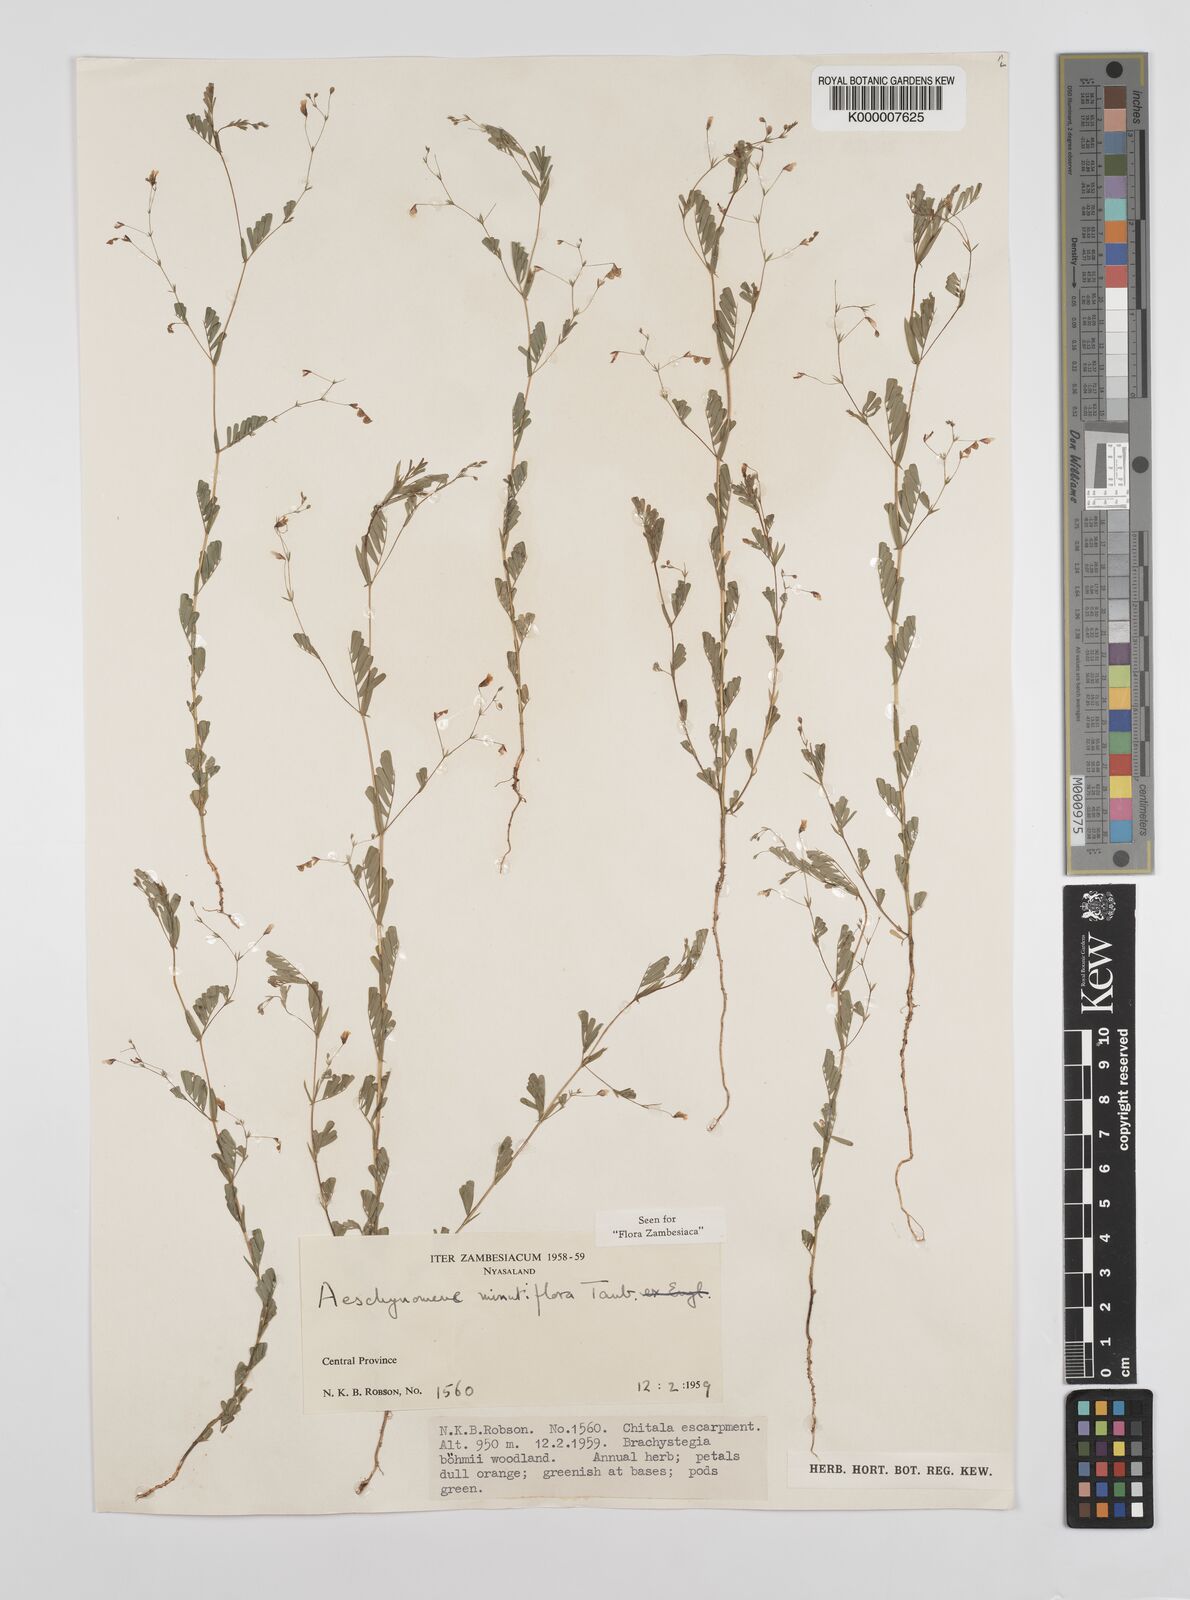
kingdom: Plantae
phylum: Tracheophyta
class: Magnoliopsida
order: Fabales
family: Fabaceae
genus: Aeschynomene
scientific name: Aeschynomene minutiflora
